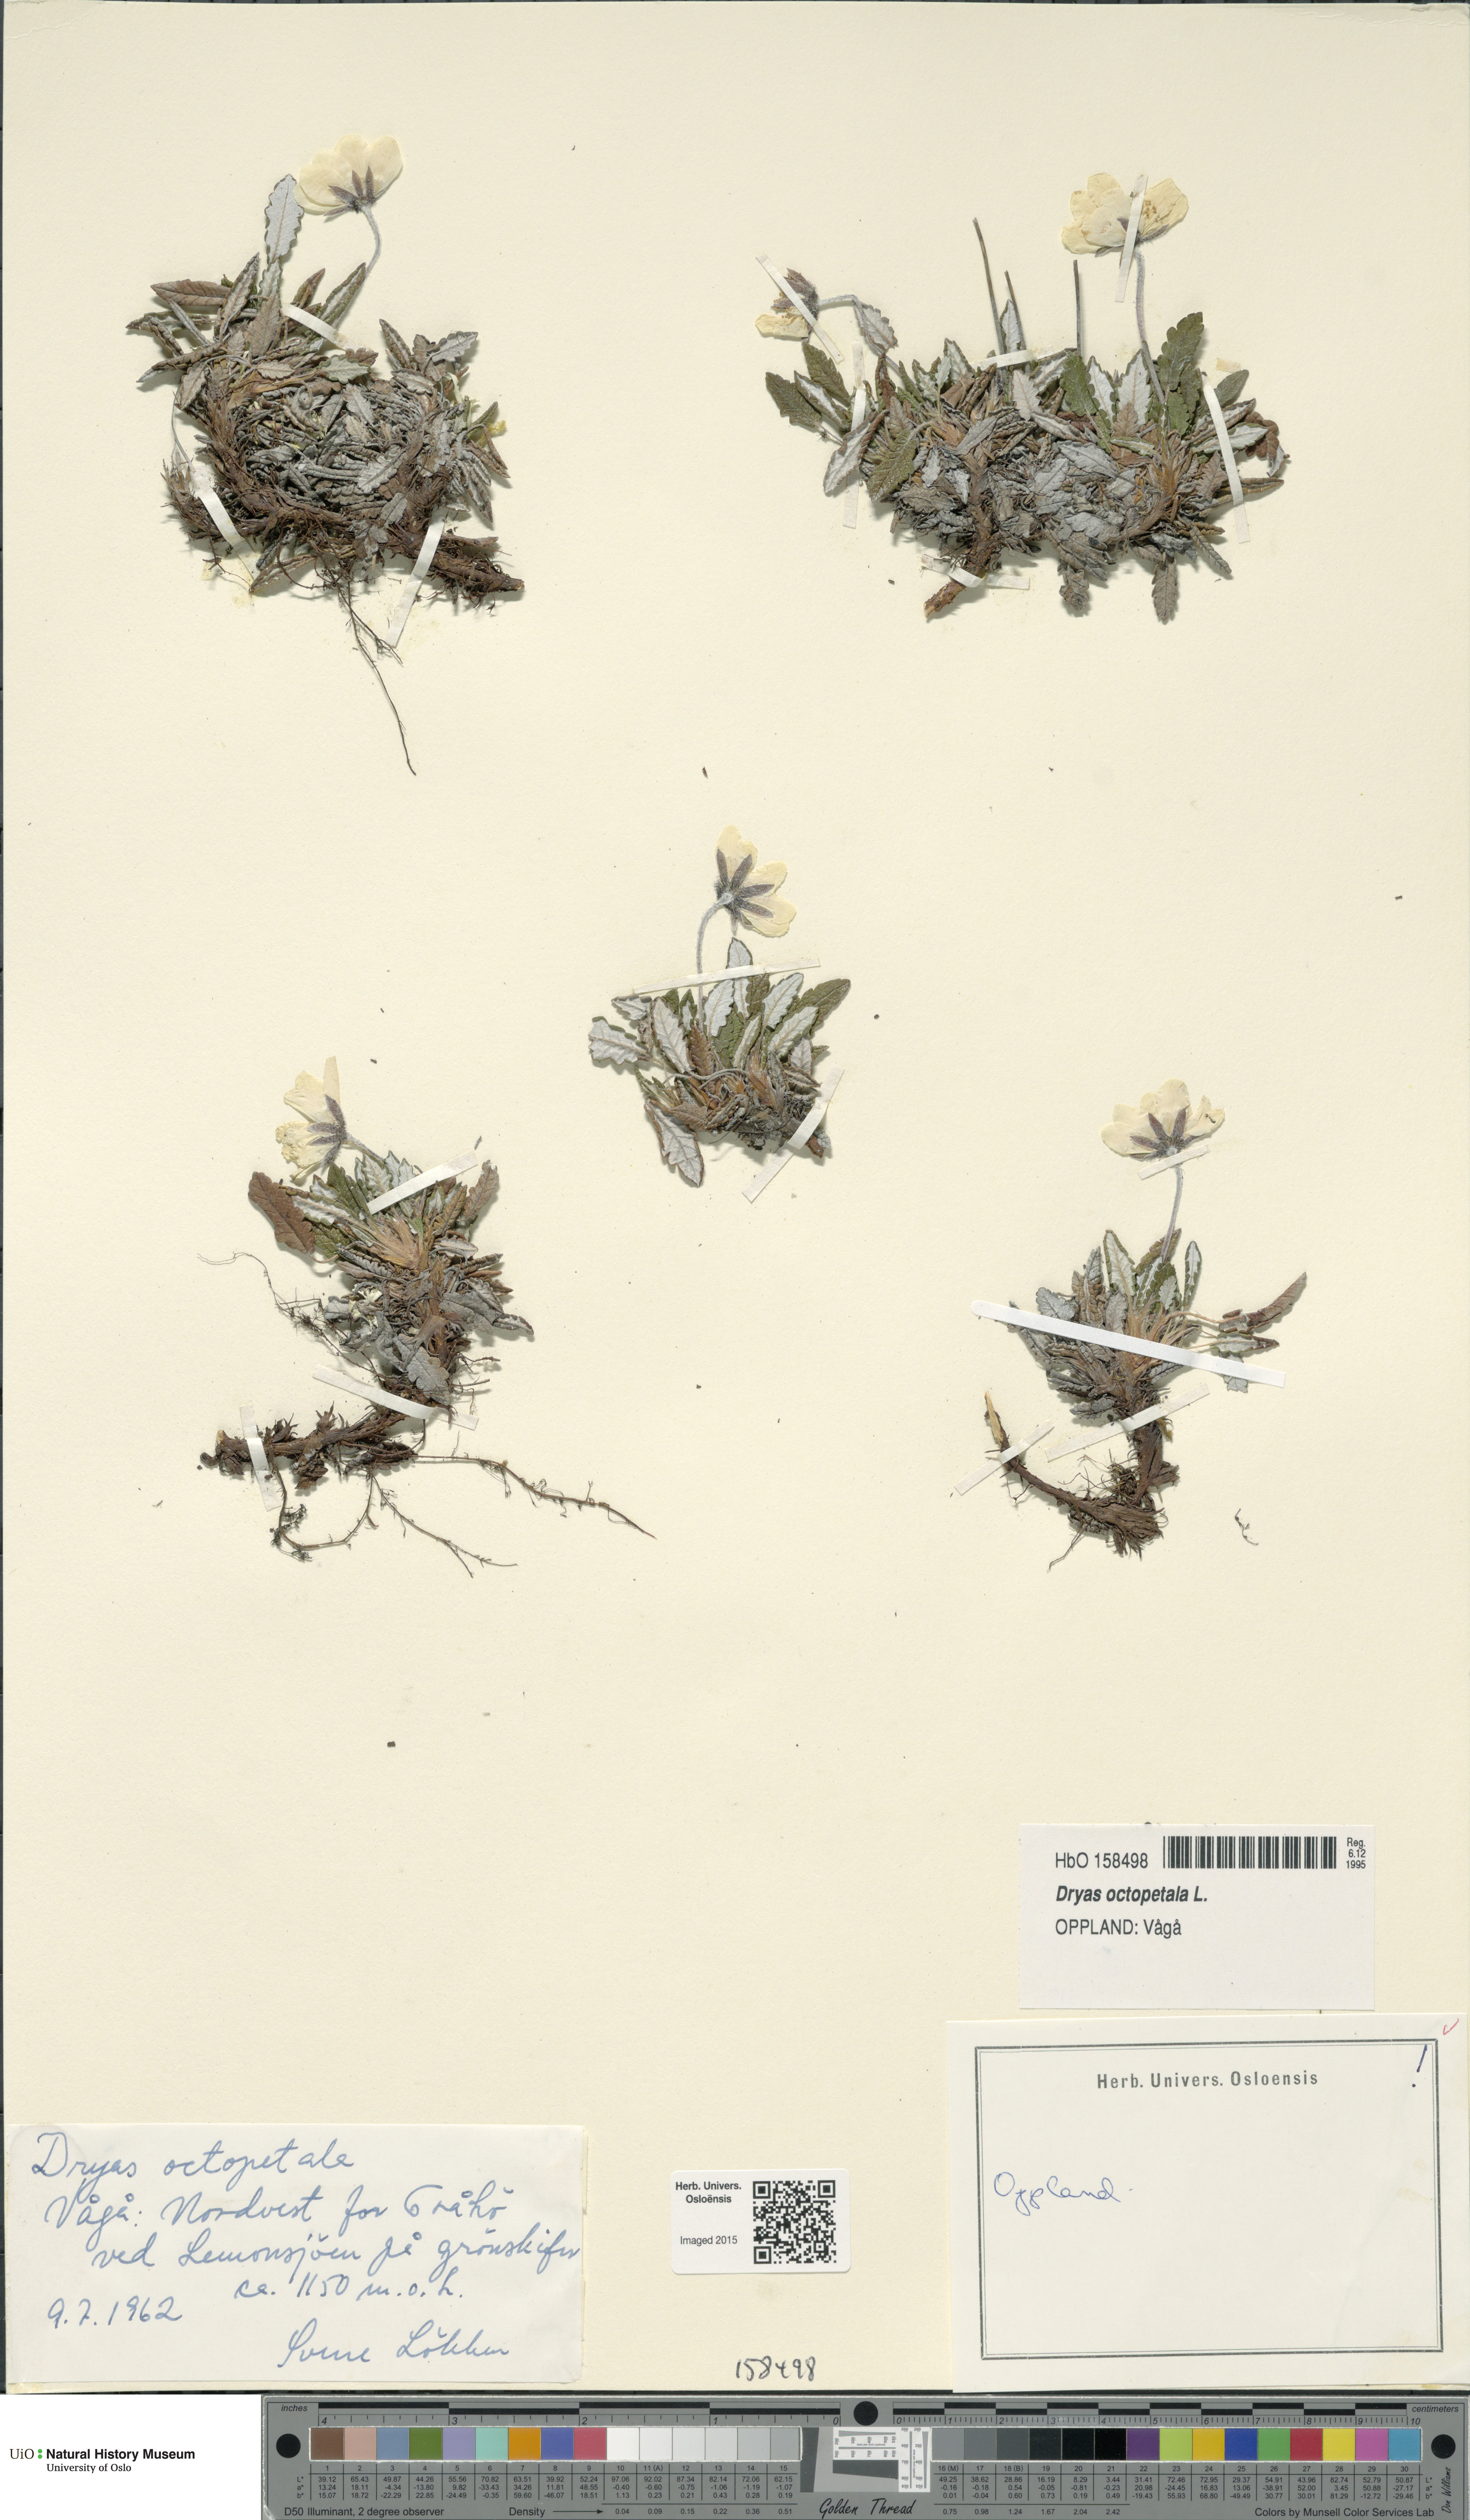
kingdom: Plantae
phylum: Tracheophyta
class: Magnoliopsida
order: Rosales
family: Rosaceae
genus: Dryas
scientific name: Dryas octopetala
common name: Eight-petal mountain-avens
